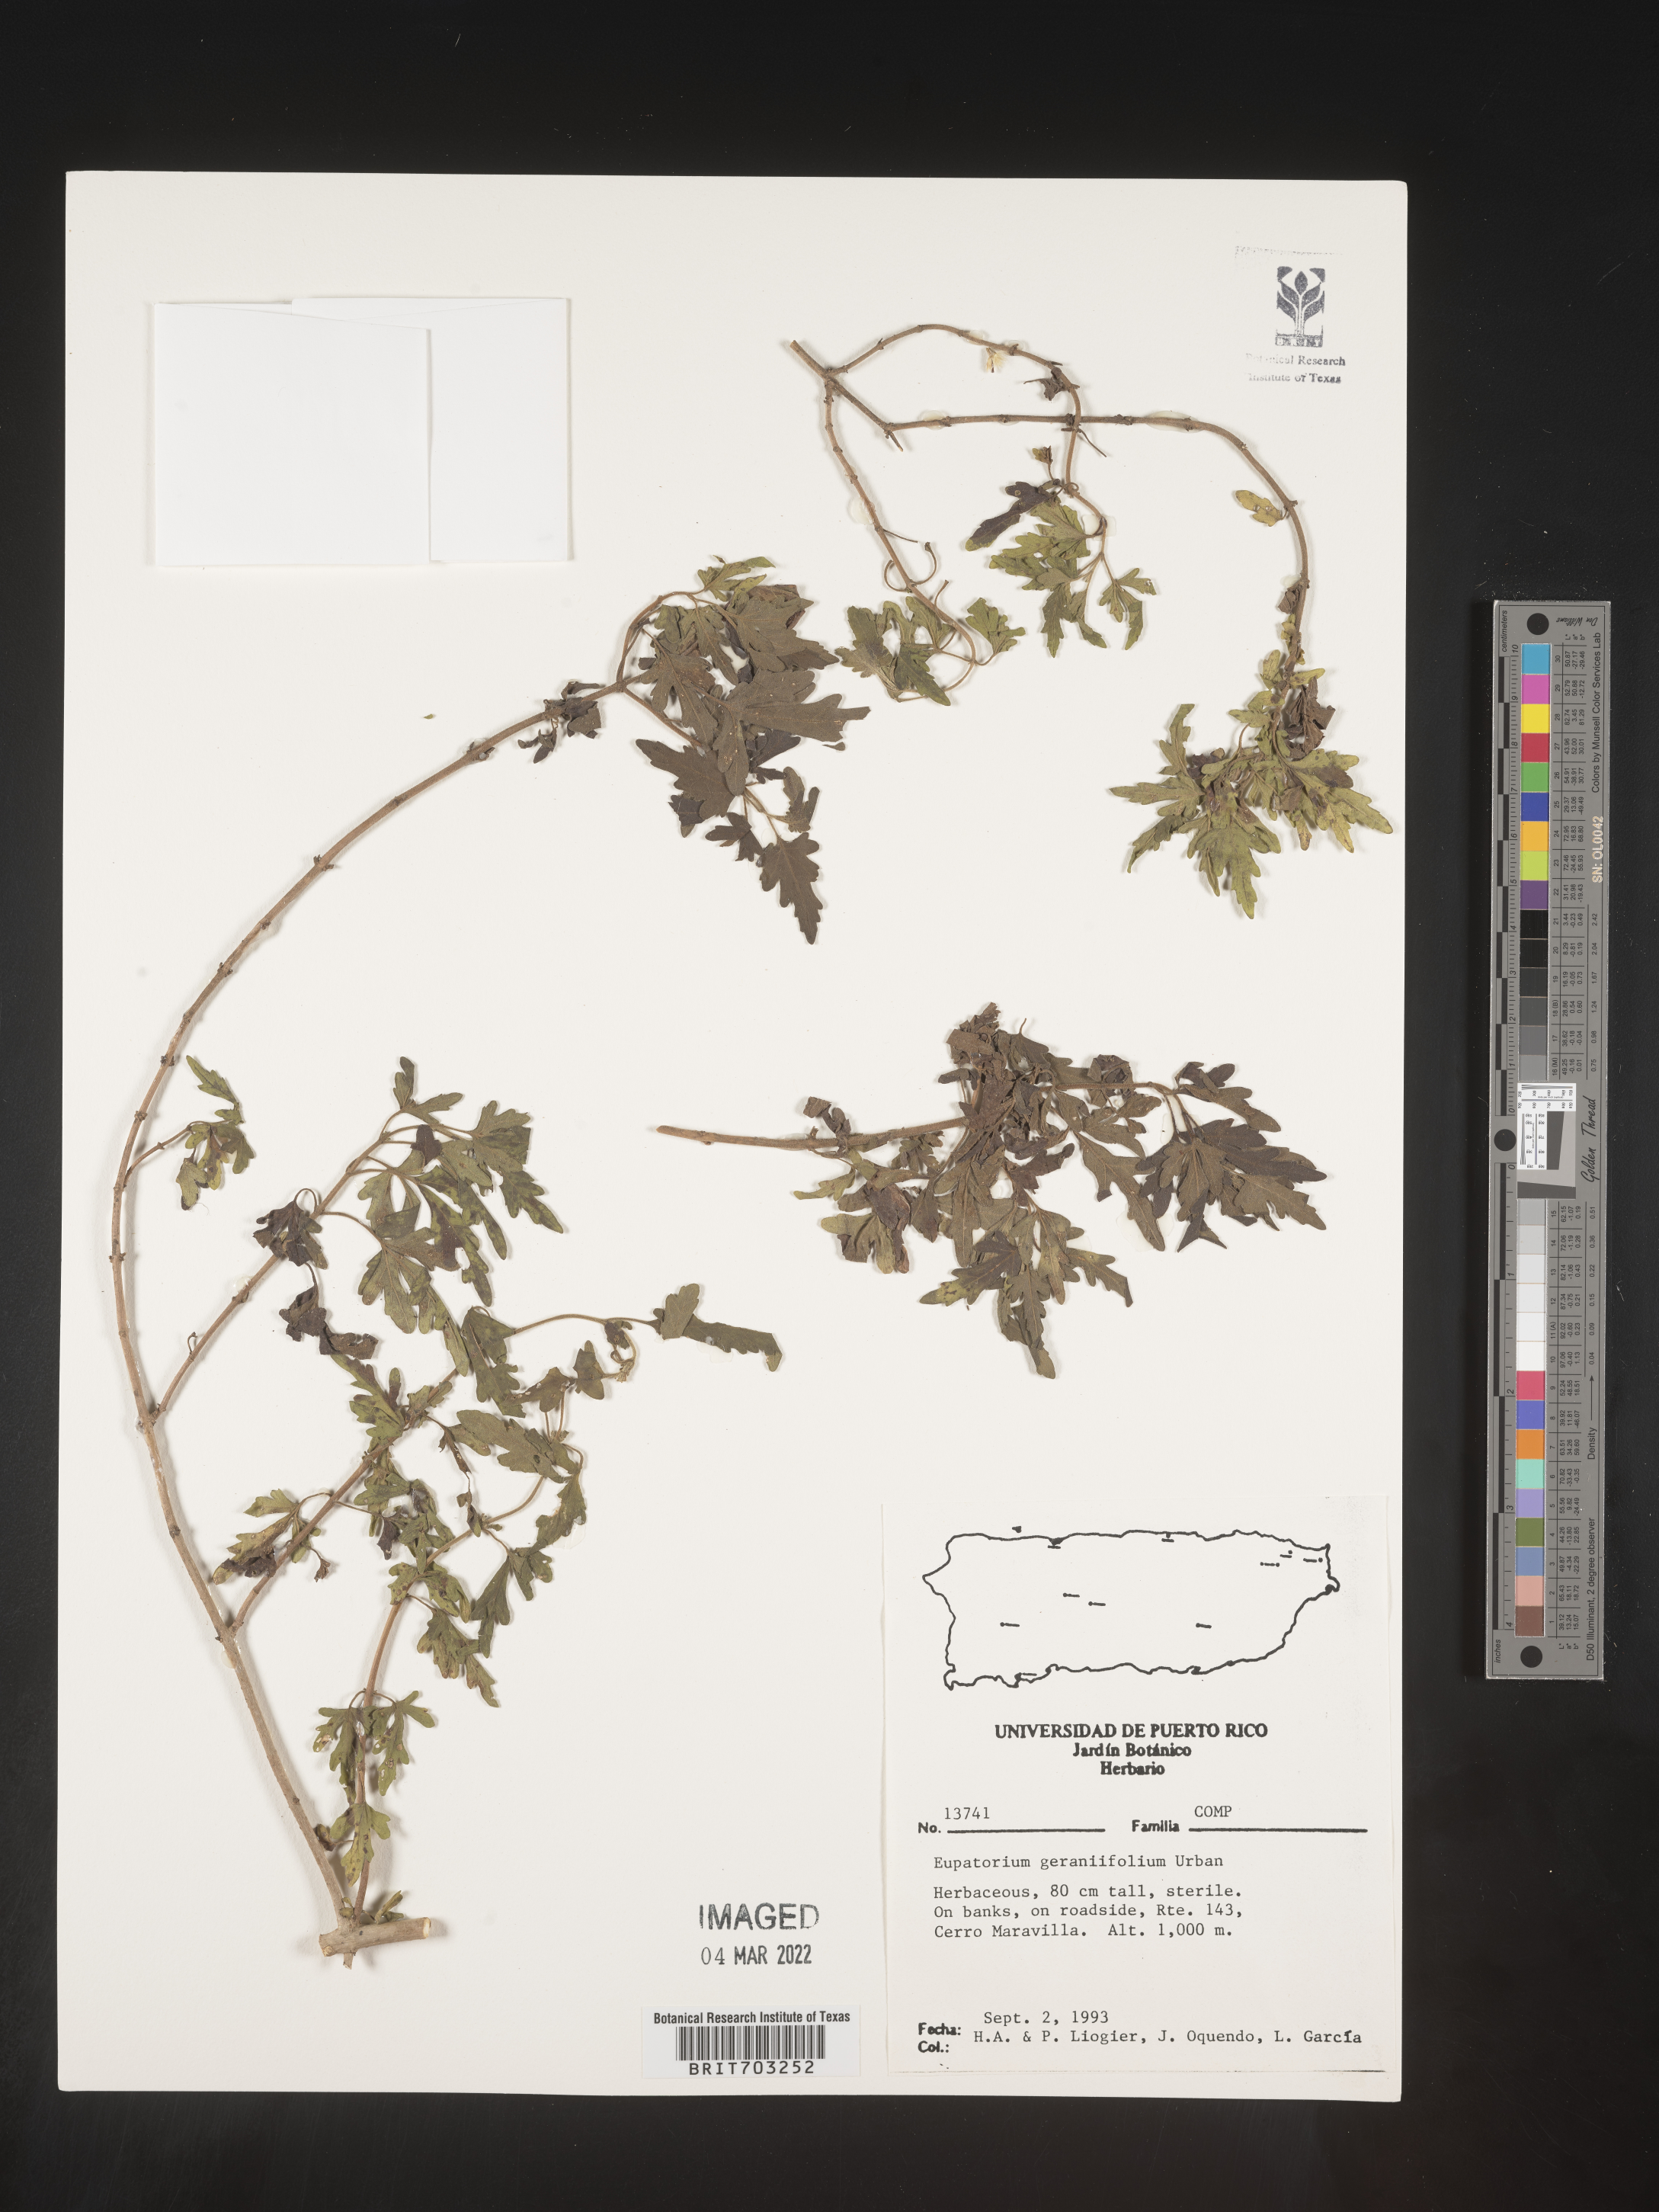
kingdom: Plantae
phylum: Tracheophyta
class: Magnoliopsida
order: Asterales
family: Asteraceae
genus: Eupatorium
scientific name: Eupatorium
